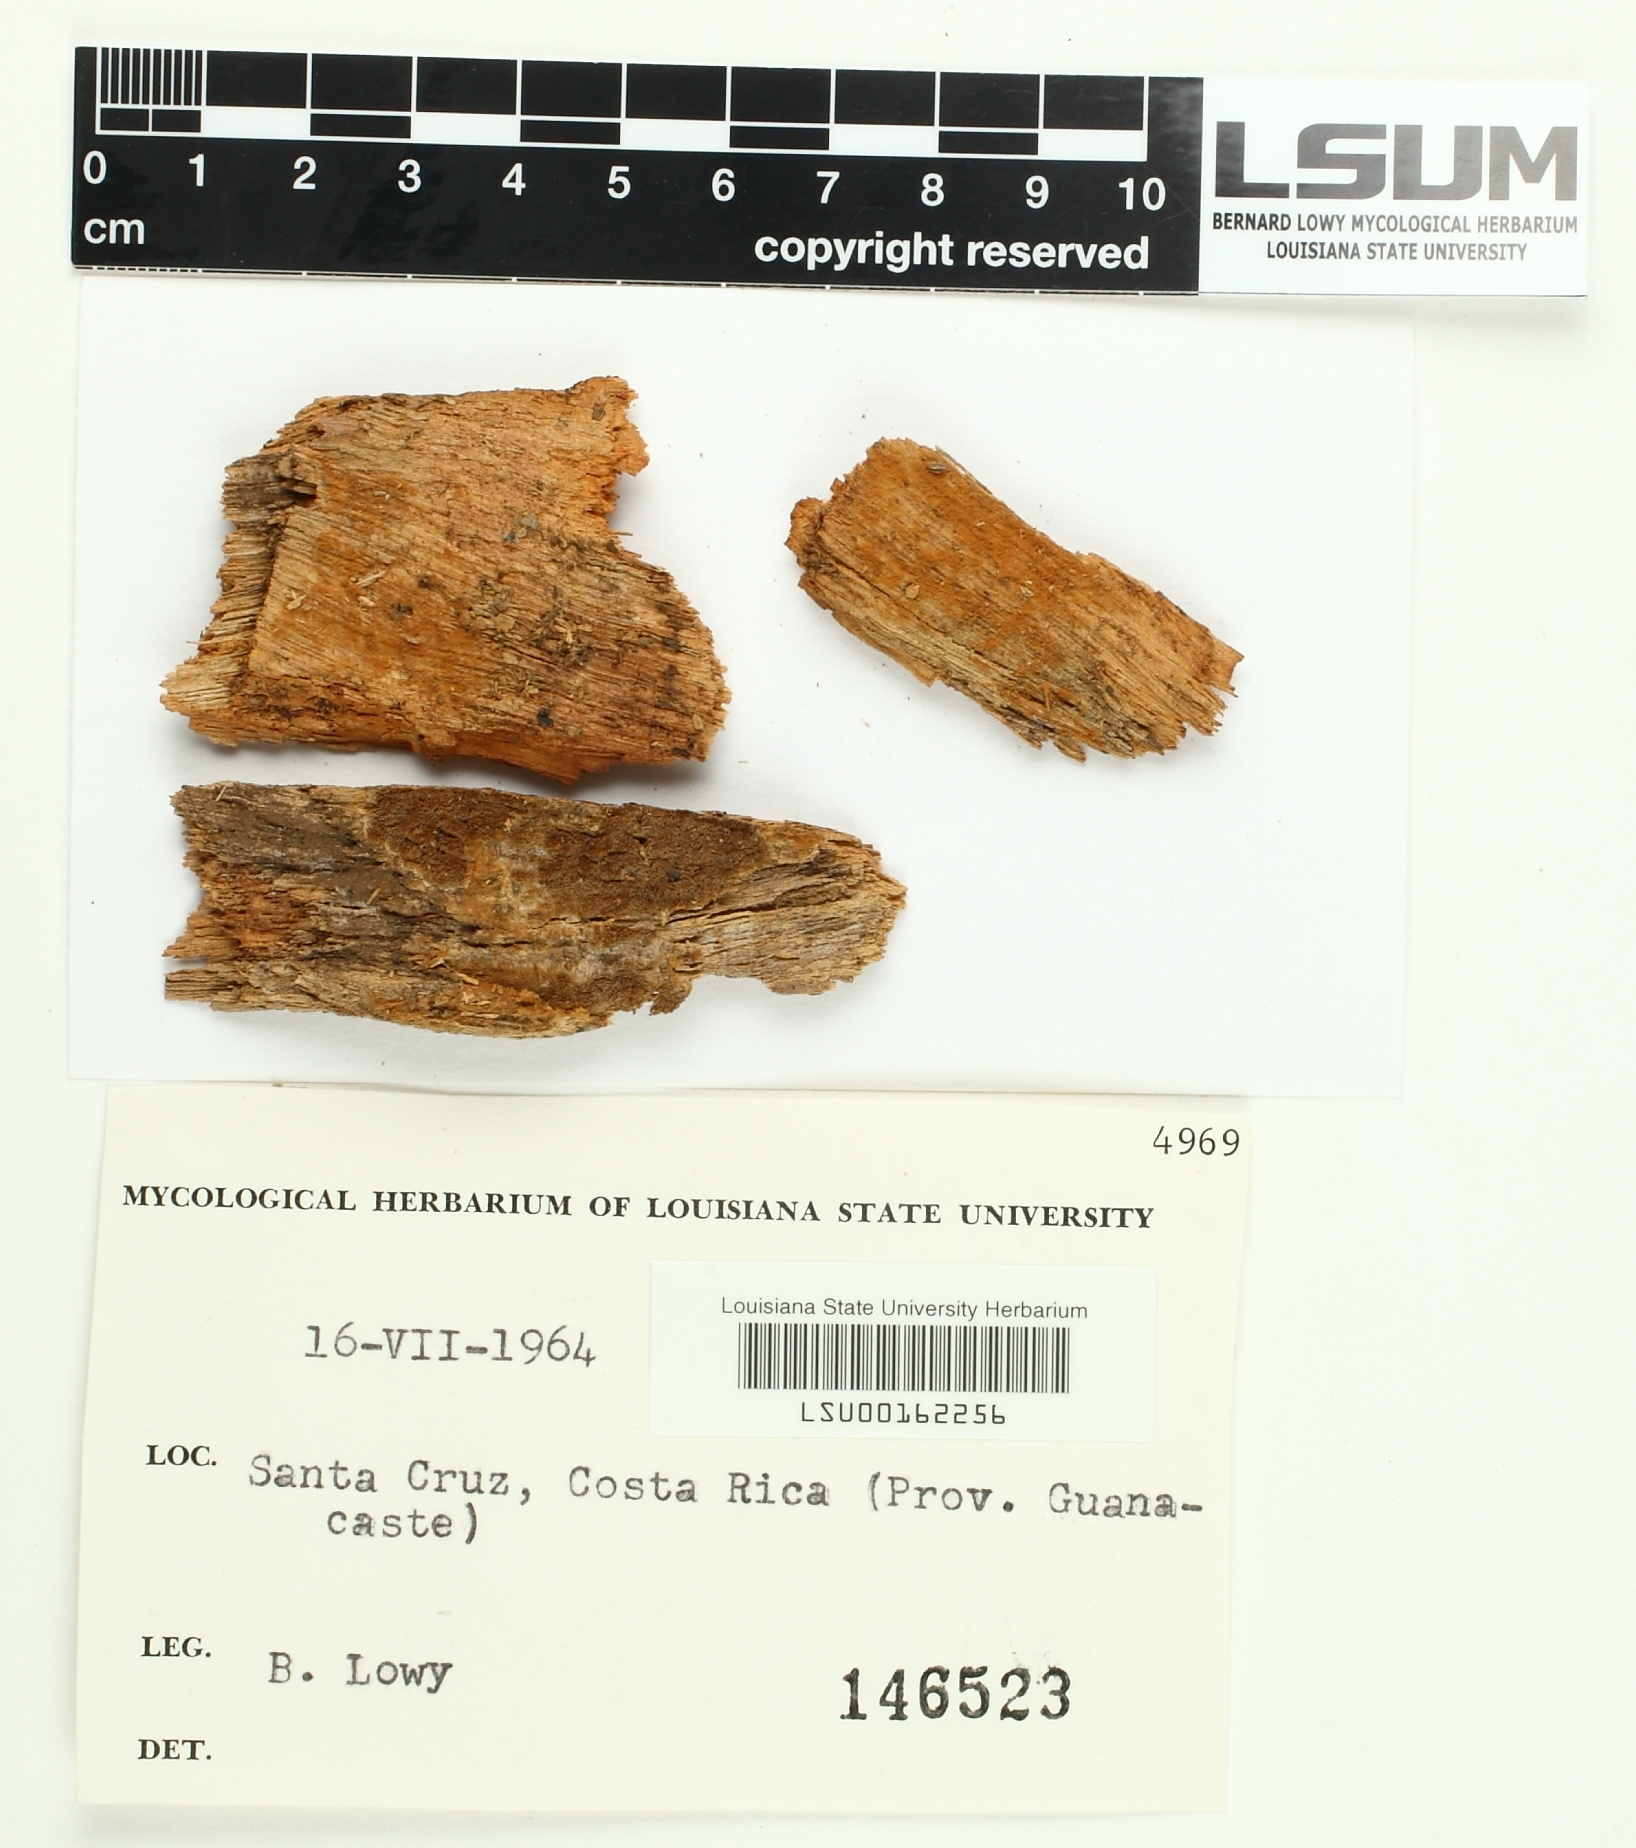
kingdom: Fungi
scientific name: Fungi
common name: Fungi
